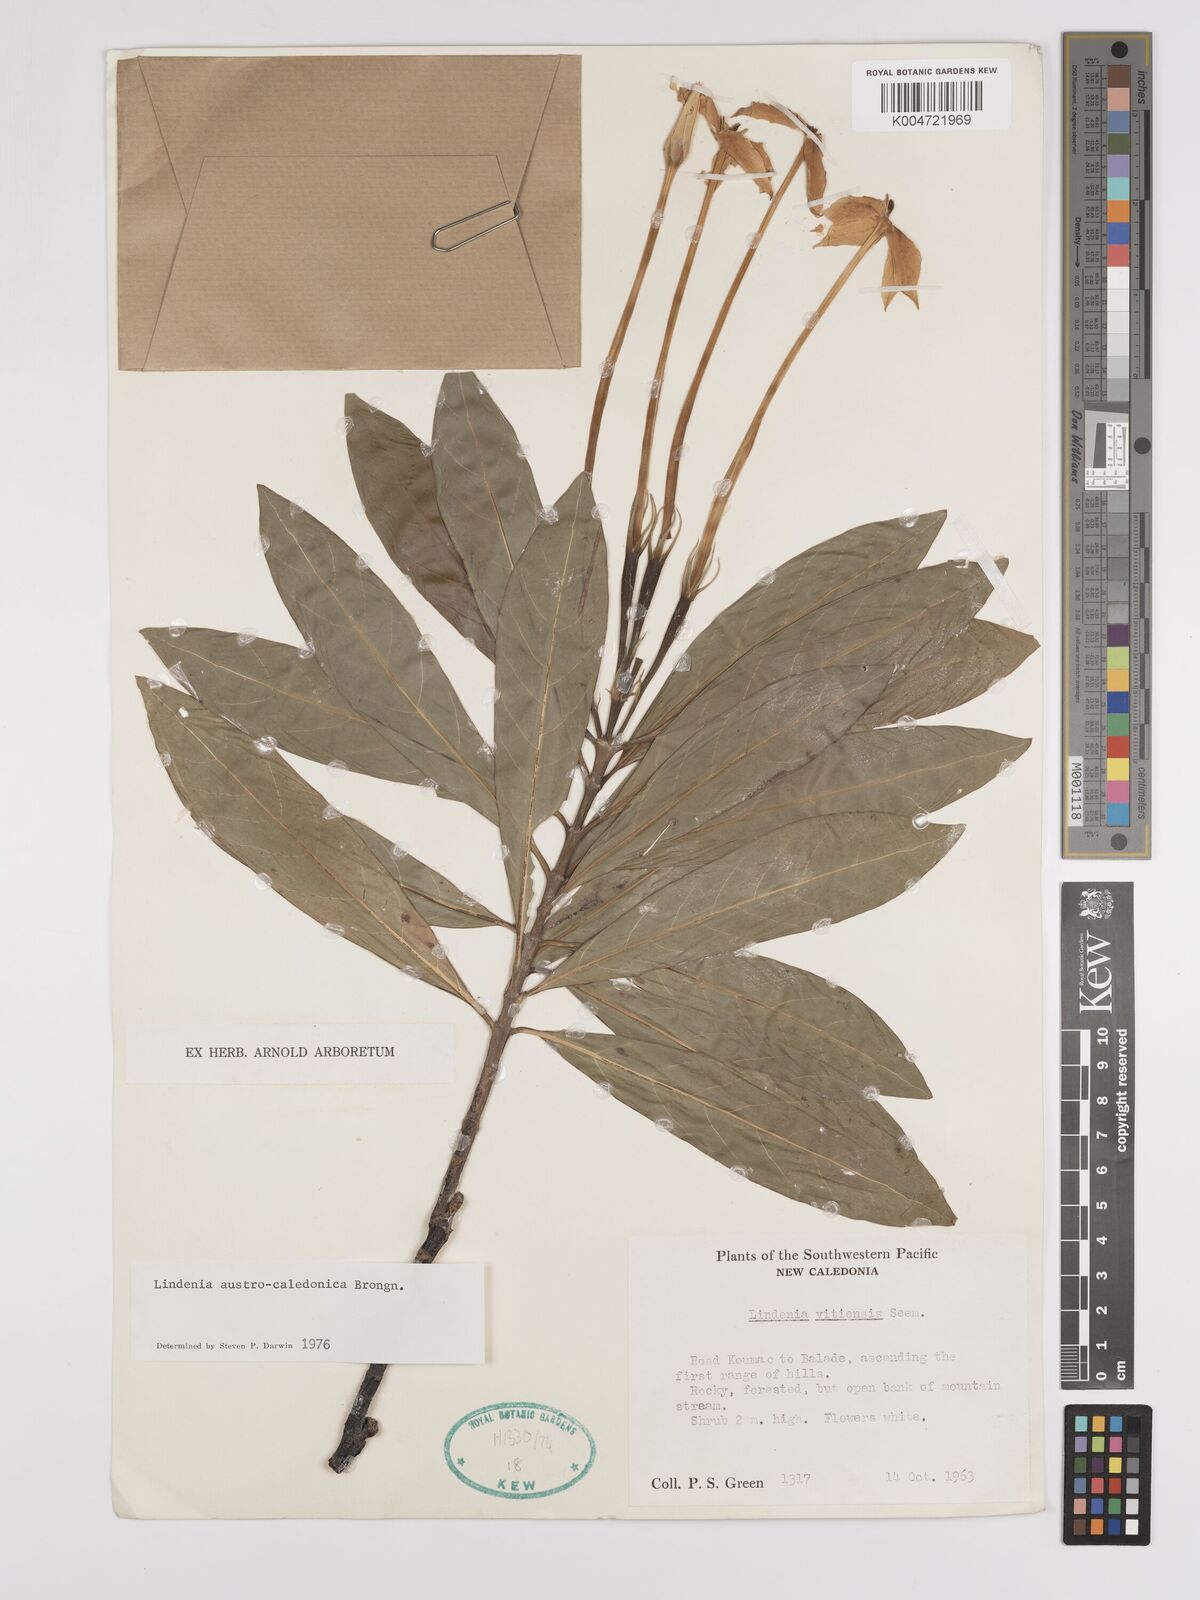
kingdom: Plantae
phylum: Tracheophyta
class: Magnoliopsida
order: Gentianales
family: Rubiaceae
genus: Augusta
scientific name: Augusta austrocaledonica
